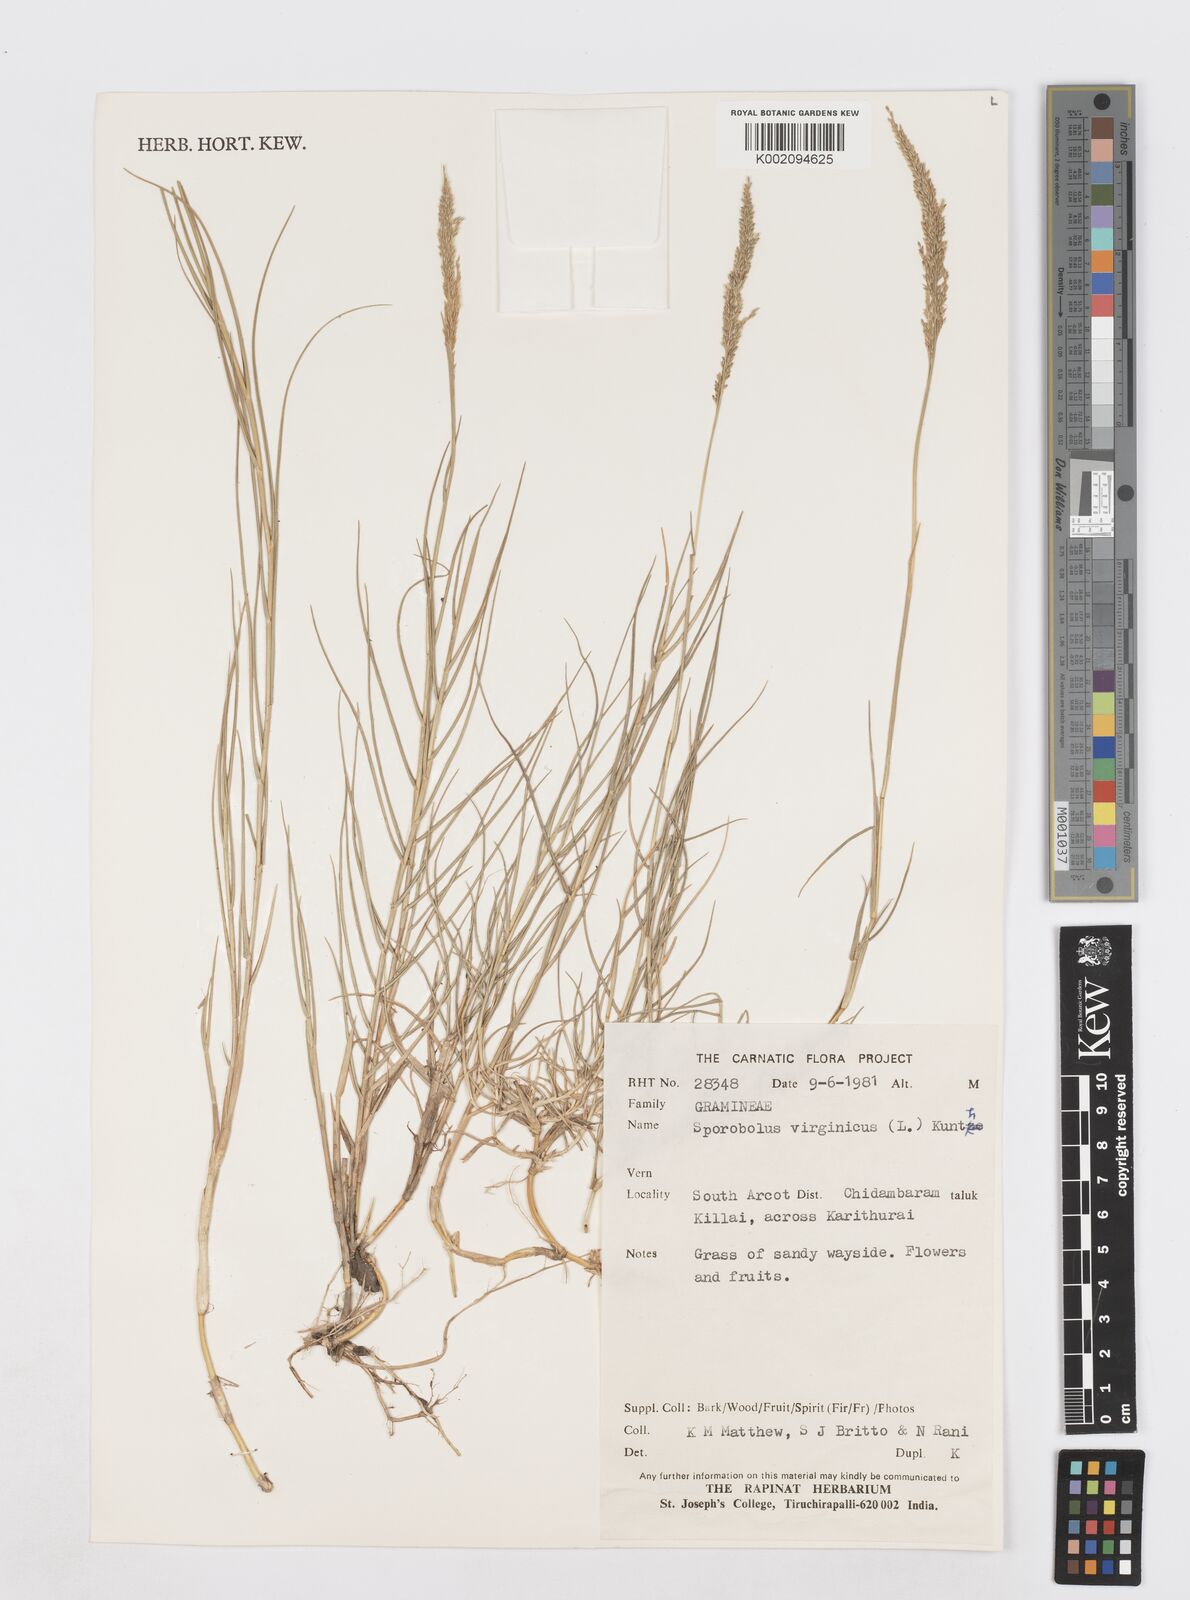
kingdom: Plantae
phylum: Tracheophyta
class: Liliopsida
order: Poales
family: Poaceae
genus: Sporobolus
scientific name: Sporobolus virginicus
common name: Beach dropseed
